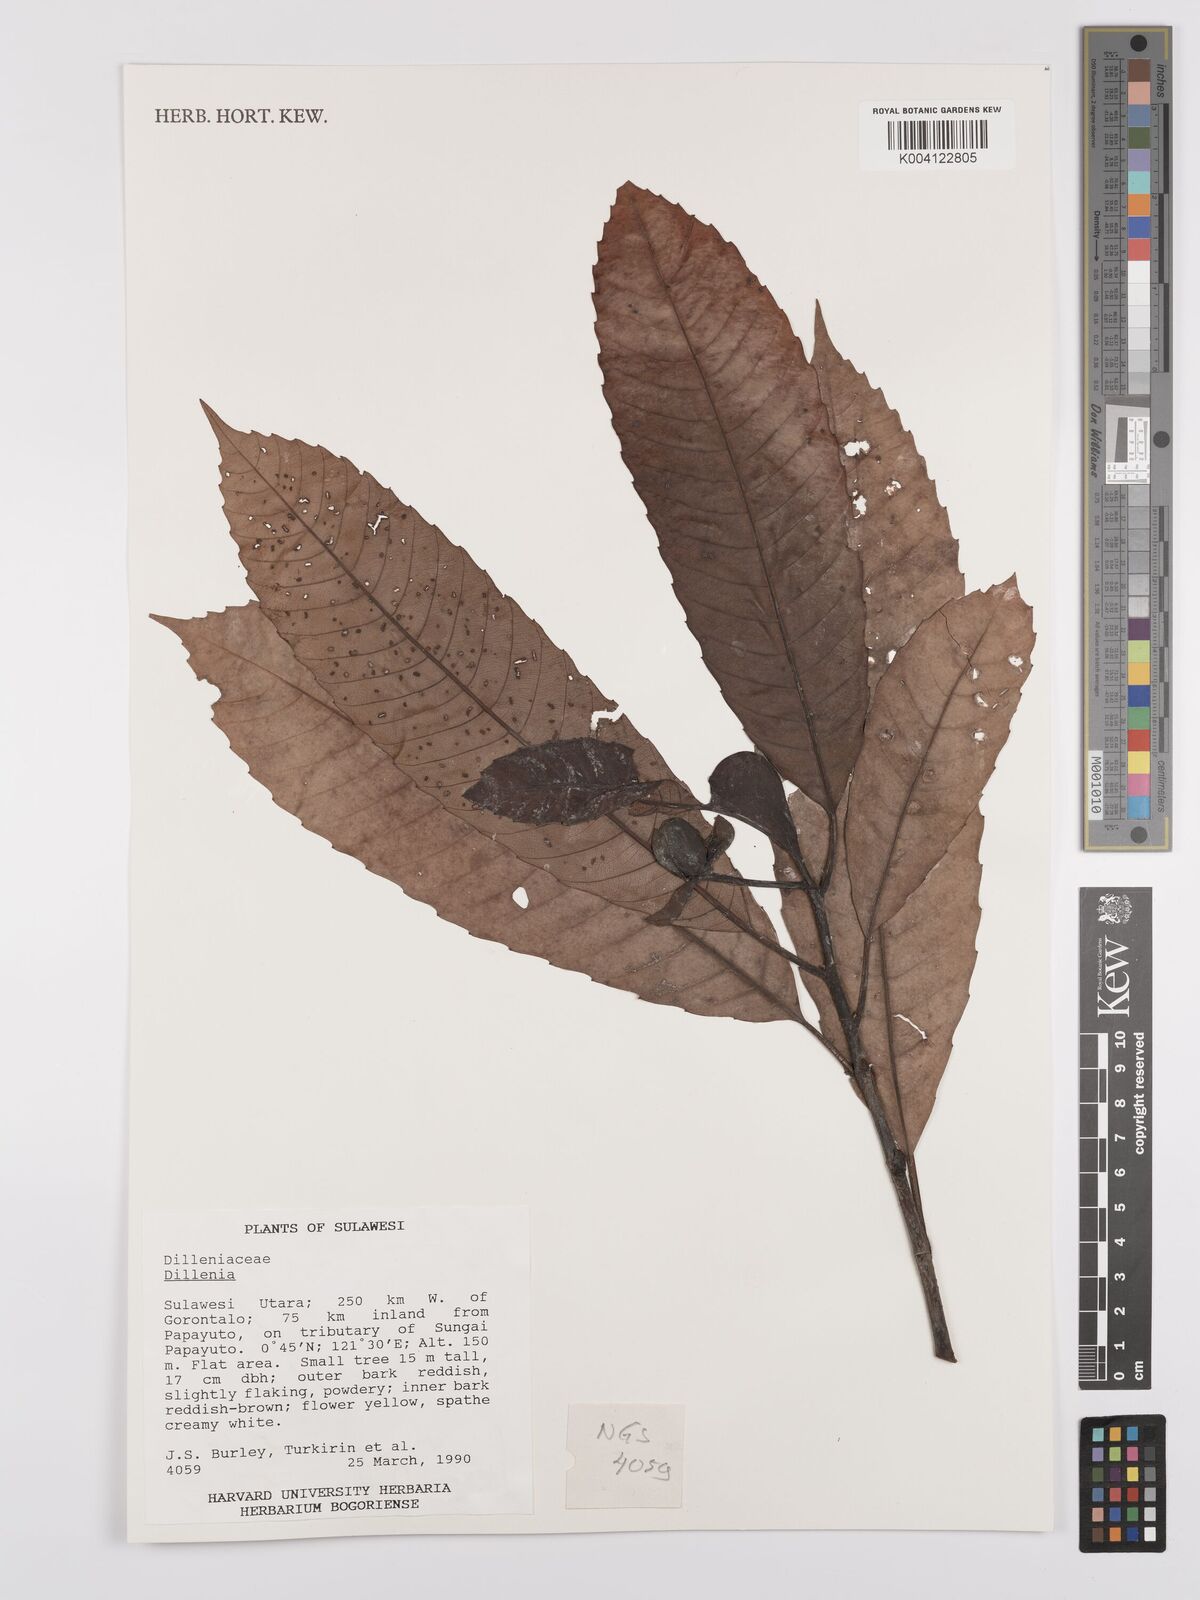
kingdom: Plantae
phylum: Tracheophyta
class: Magnoliopsida
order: Dilleniales
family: Dilleniaceae
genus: Dillenia
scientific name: Dillenia
